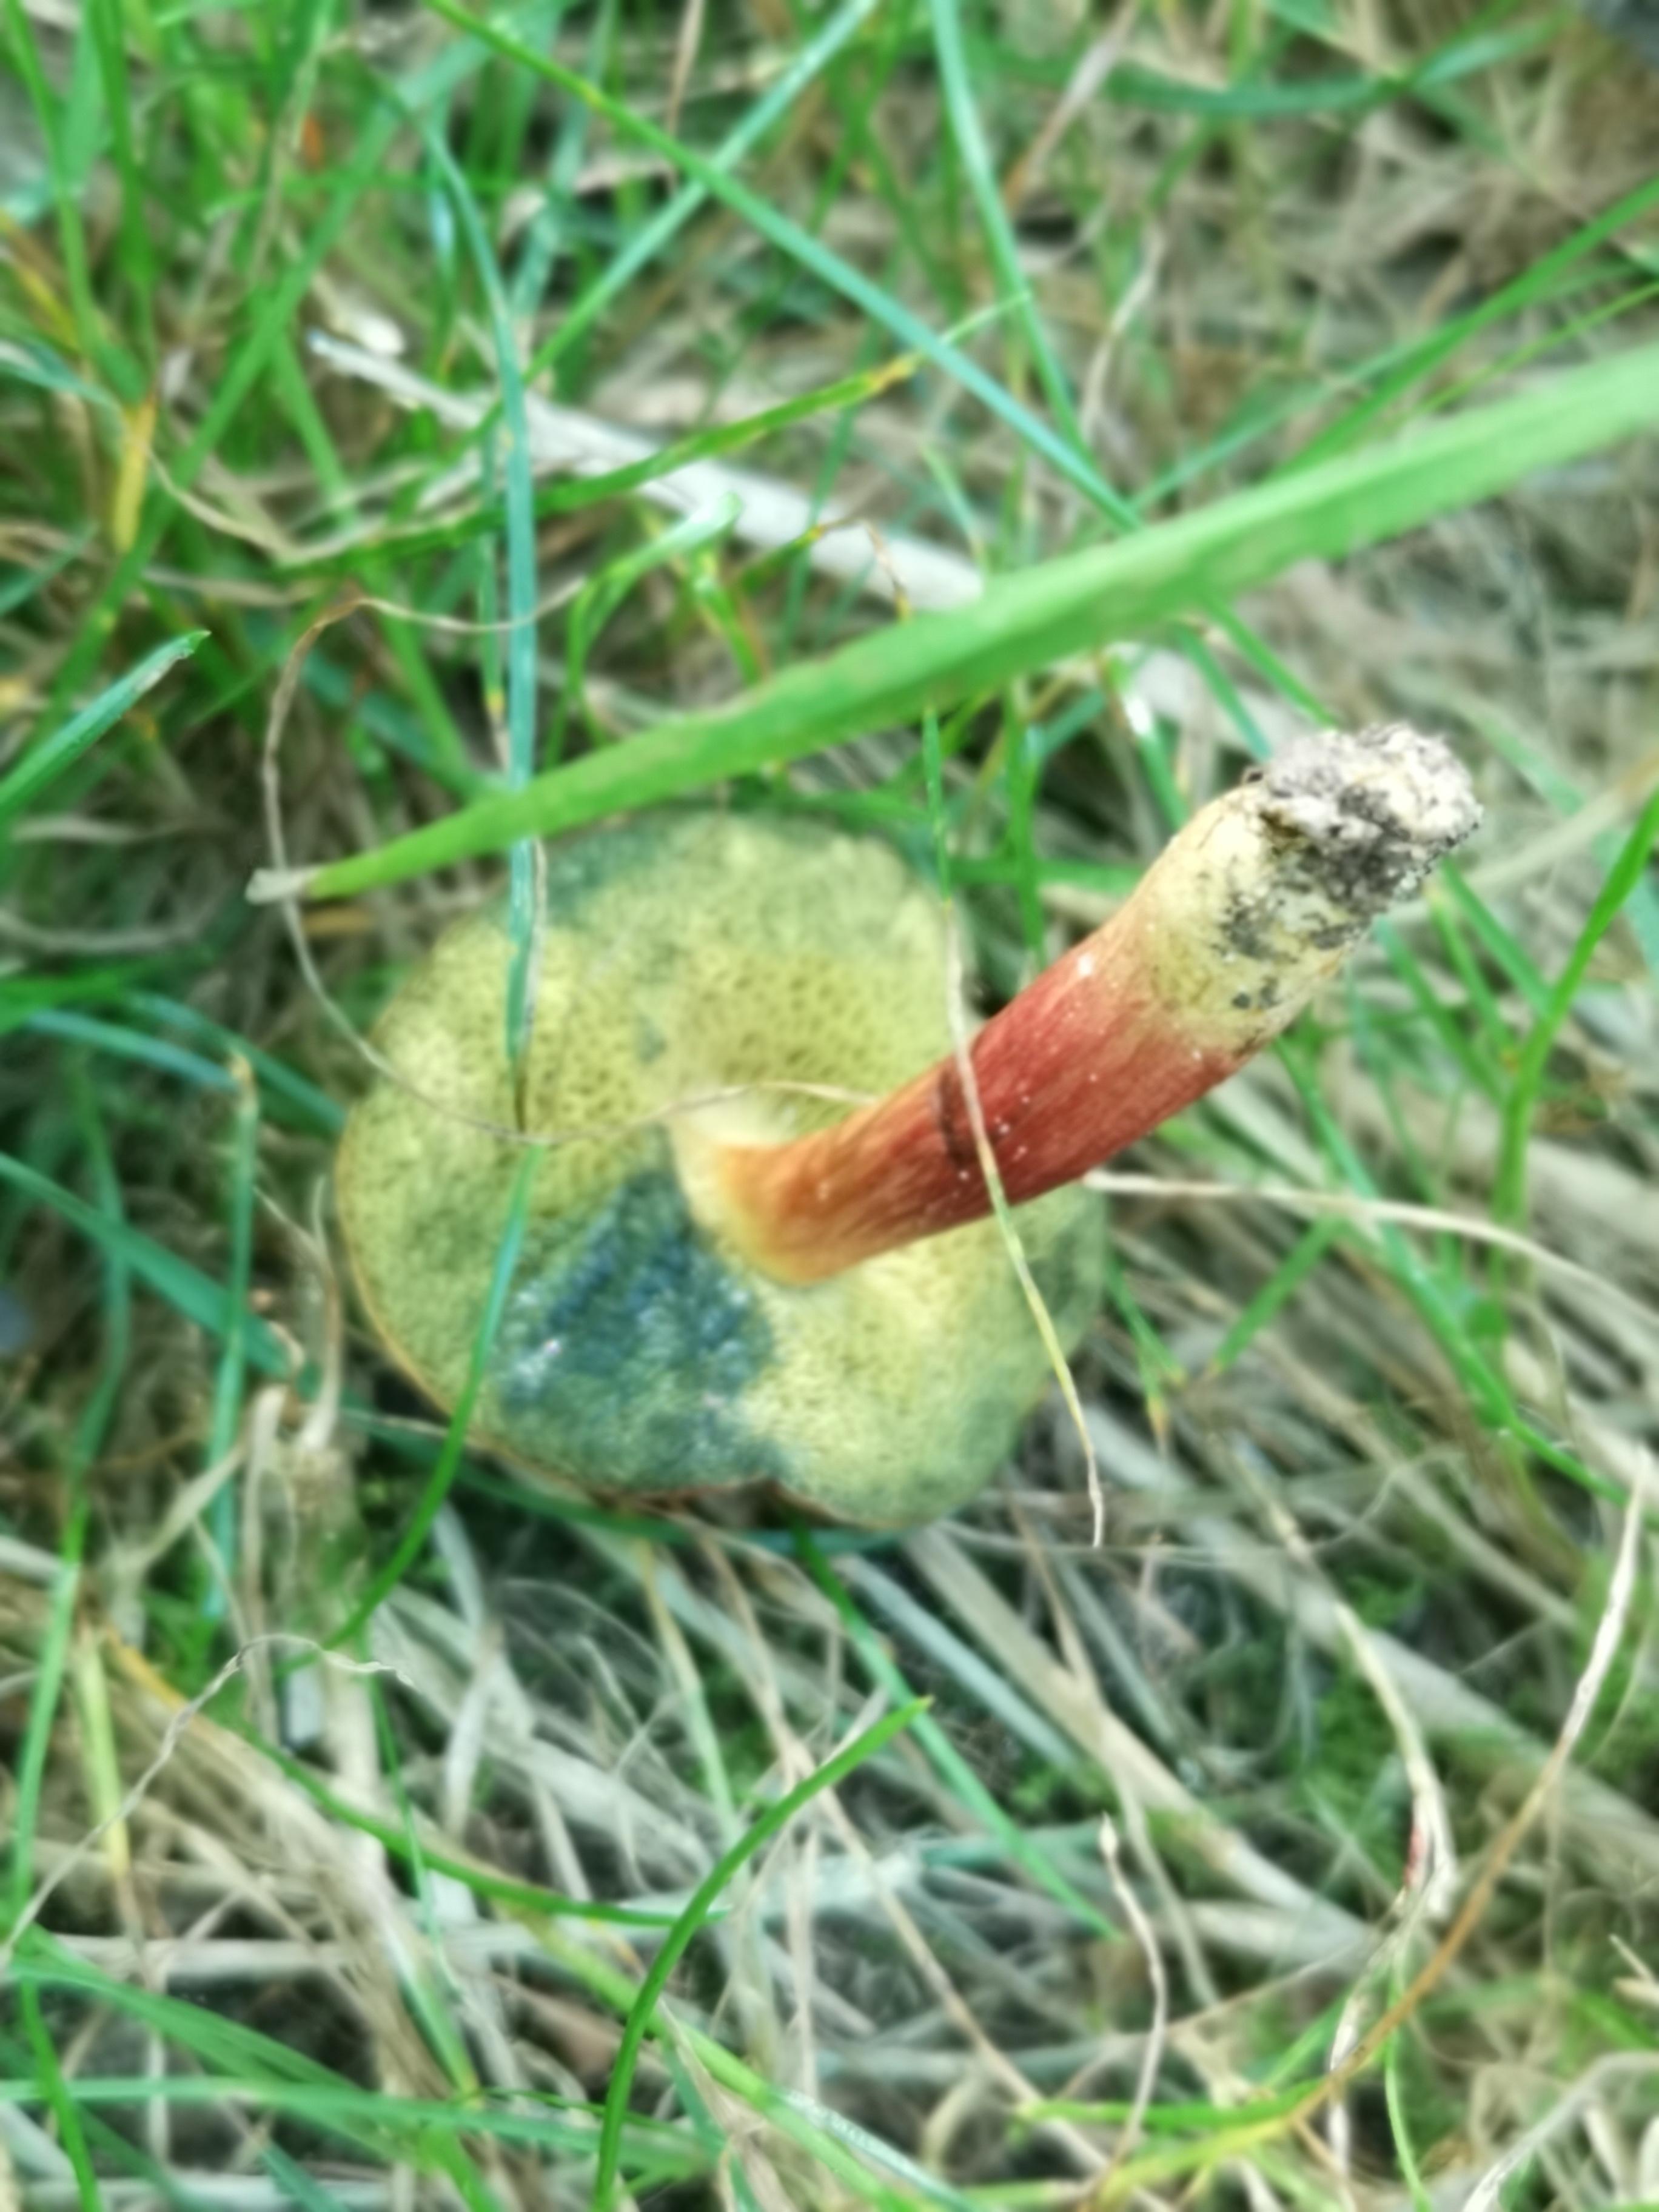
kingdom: Fungi
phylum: Basidiomycota
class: Agaricomycetes
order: Boletales
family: Boletaceae
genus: Hortiboletus
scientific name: Hortiboletus
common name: dværgrørhat
